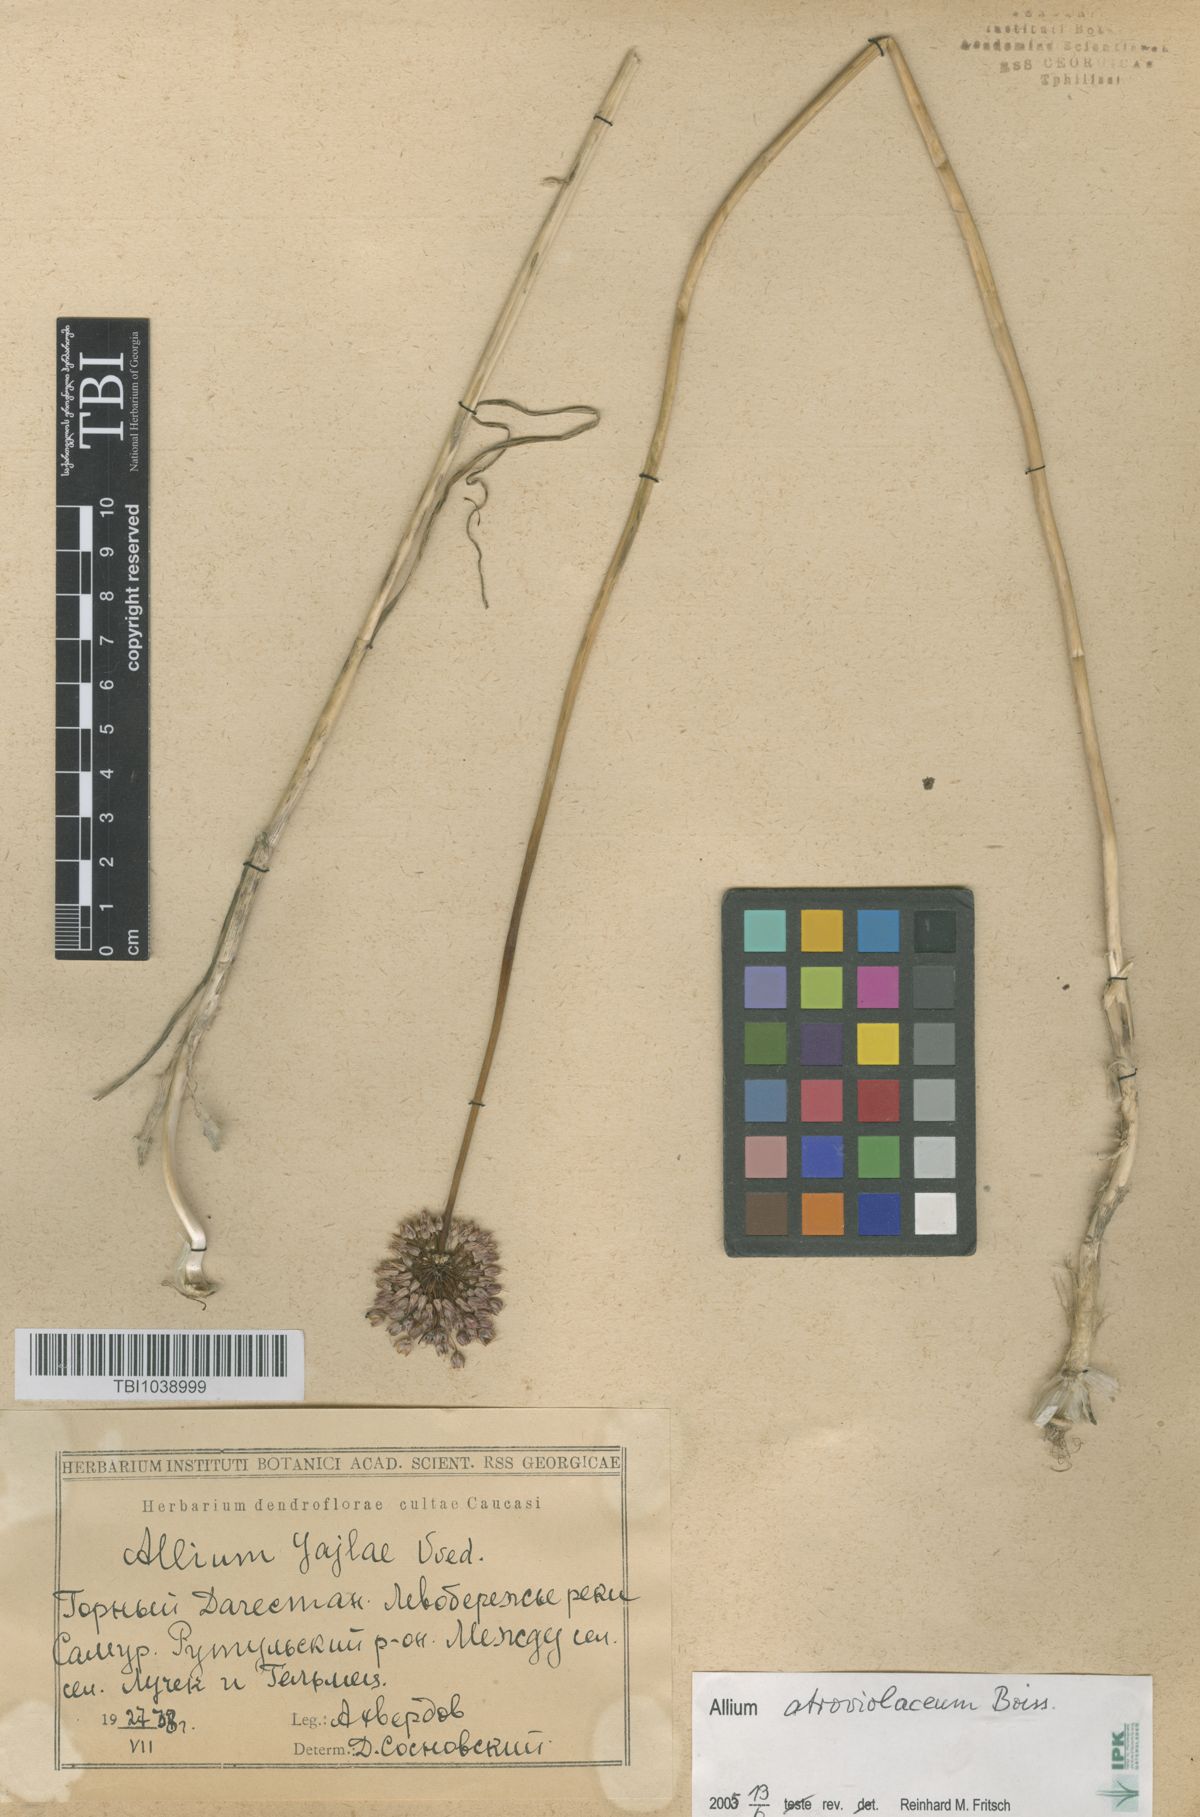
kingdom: Plantae
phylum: Tracheophyta
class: Liliopsida
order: Asparagales
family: Amaryllidaceae
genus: Allium
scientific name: Allium rotundum
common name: Sand leek
